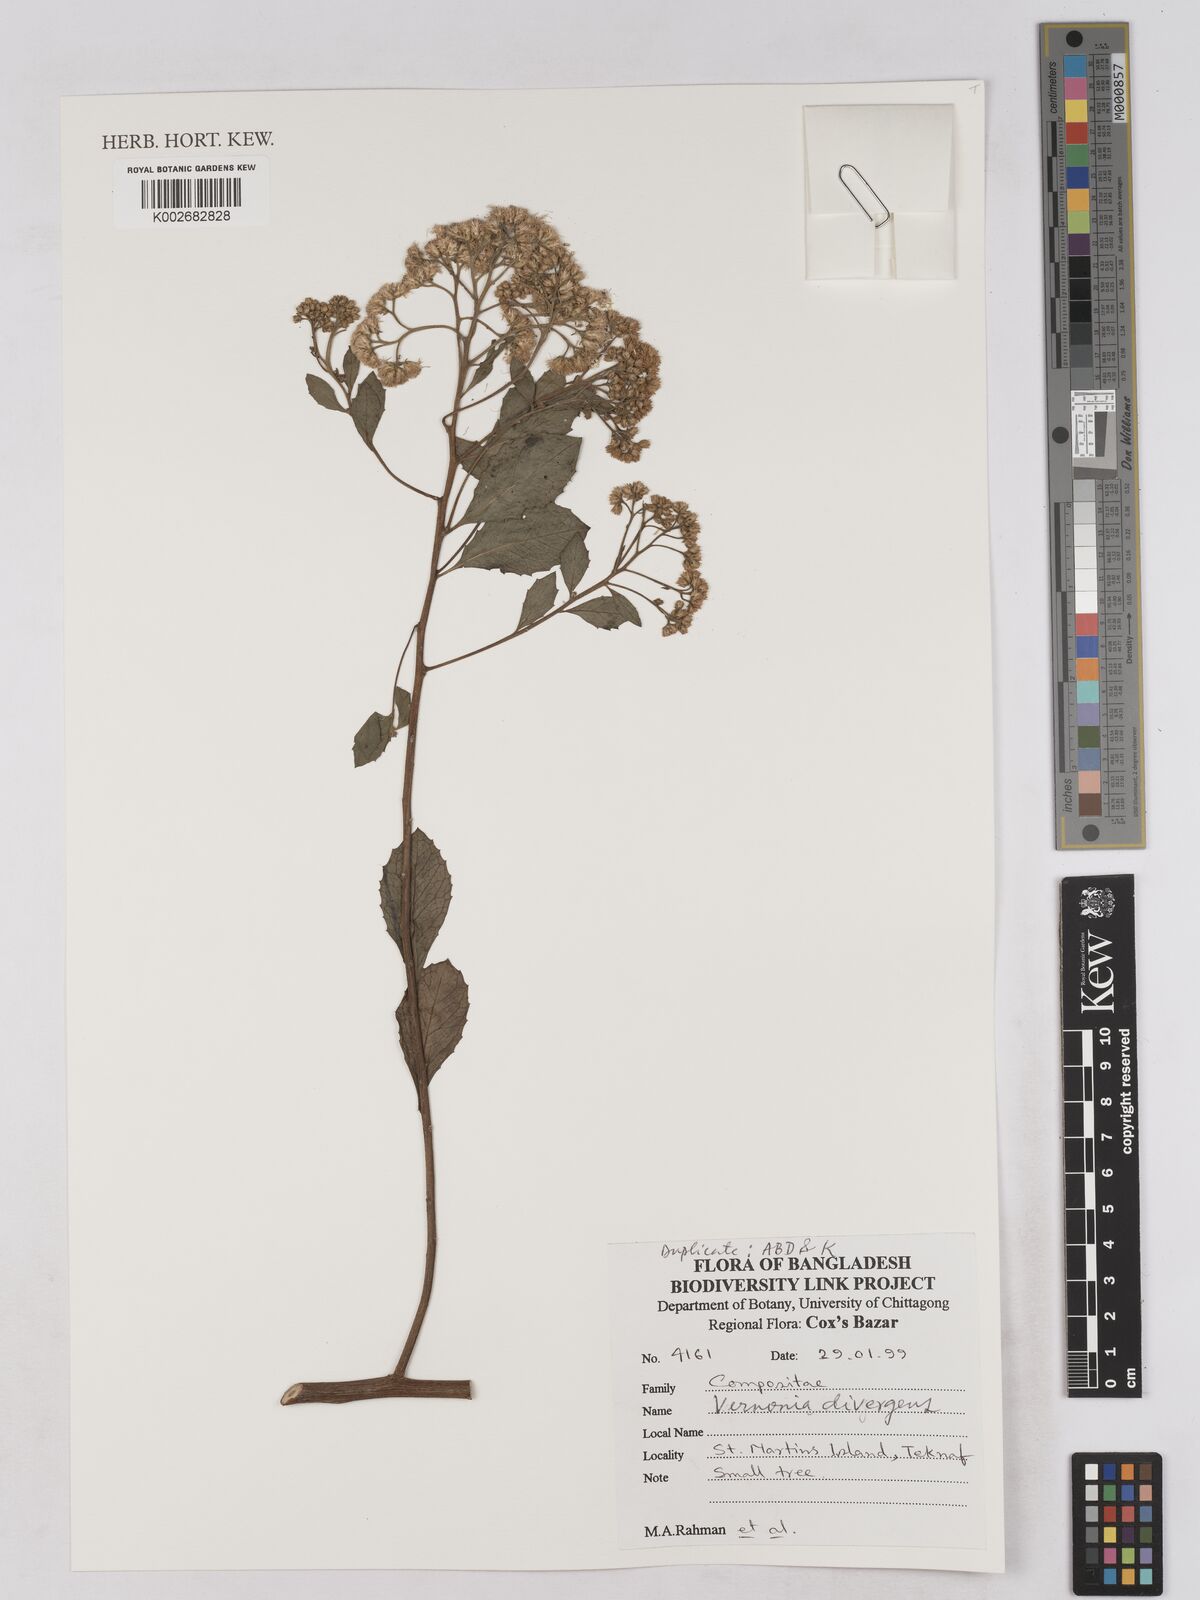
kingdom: Plantae
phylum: Tracheophyta
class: Magnoliopsida
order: Asterales
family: Asteraceae
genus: Acilepis
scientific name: Acilepis divergens
